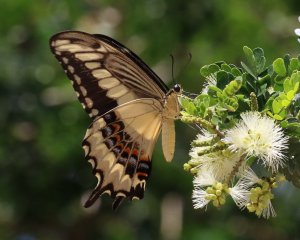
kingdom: Animalia
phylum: Arthropoda
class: Insecta
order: Lepidoptera
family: Papilionidae
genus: Papilio
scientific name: Papilio ornythion
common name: Ornythion Swallowtail
